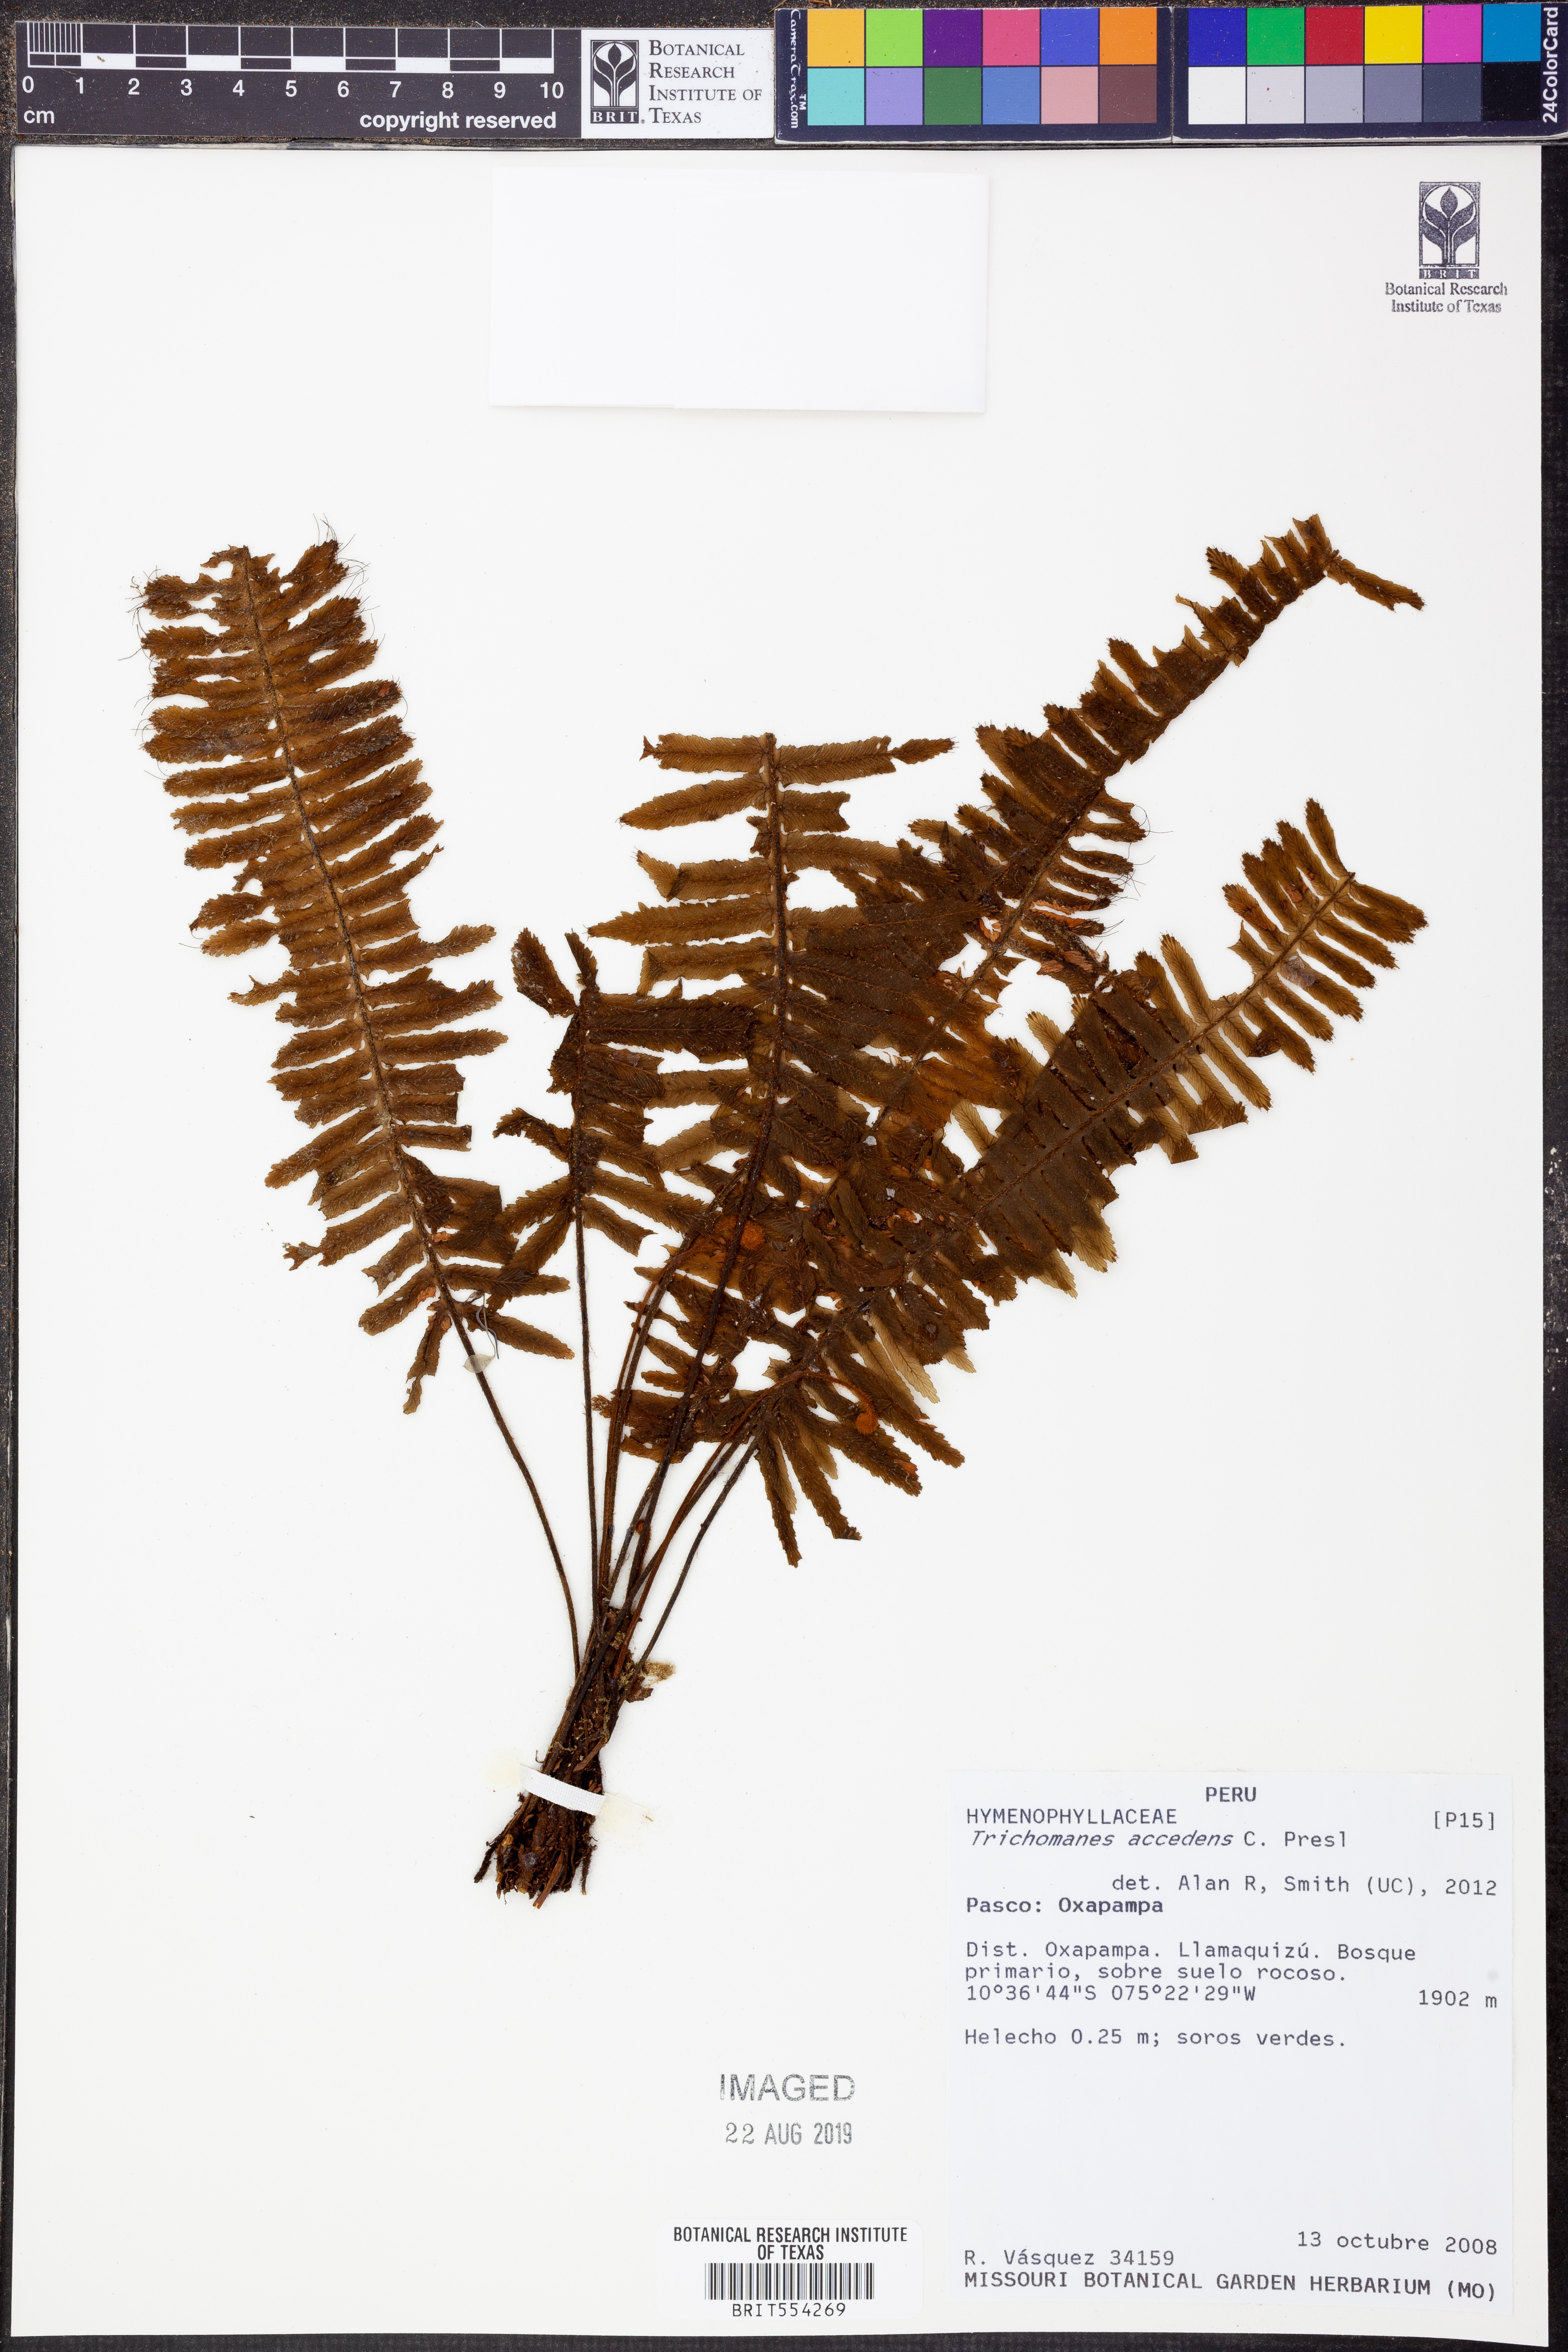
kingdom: Plantae
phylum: Tracheophyta
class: Polypodiopsida
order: Hymenophyllales
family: Hymenophyllaceae
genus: Trichomanes
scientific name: Trichomanes accedens
